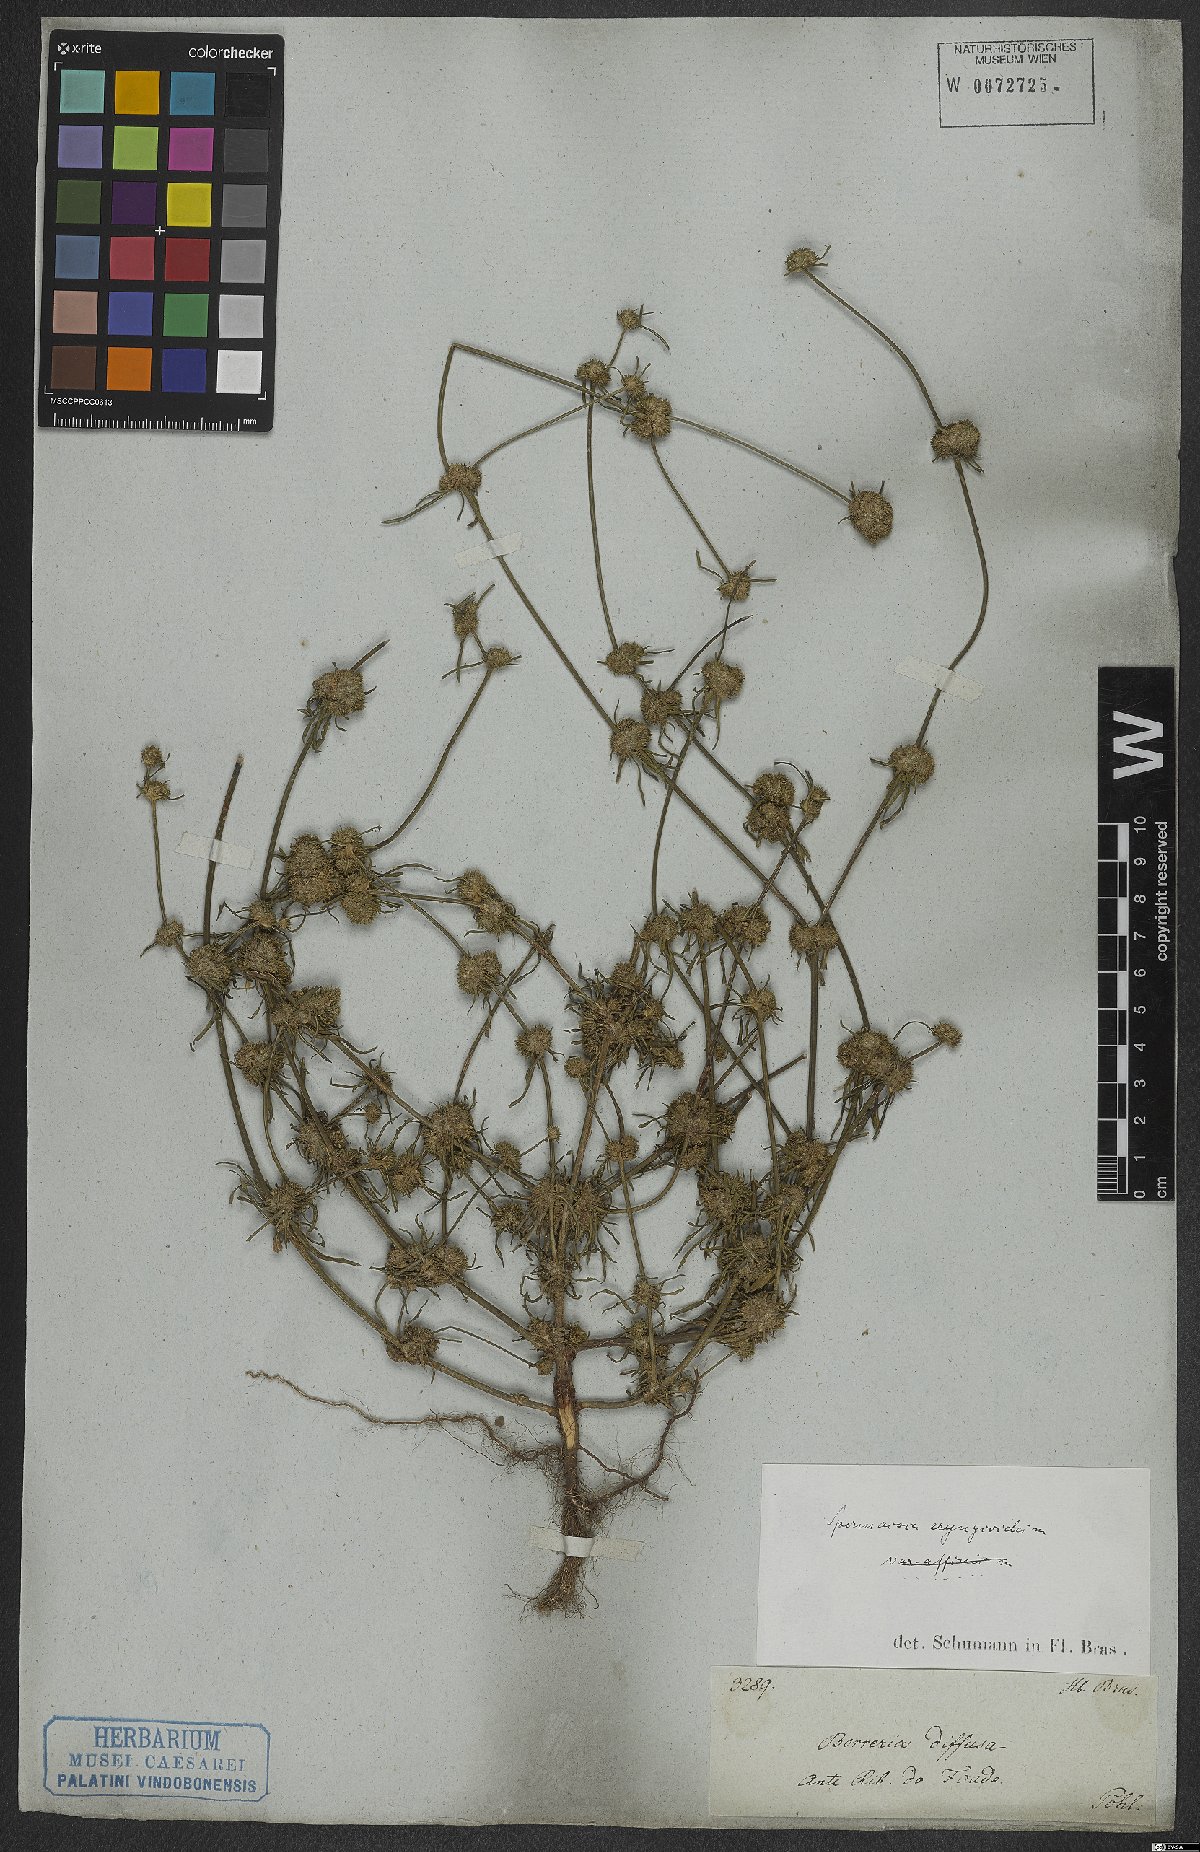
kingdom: Plantae
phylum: Tracheophyta
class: Magnoliopsida
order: Gentianales
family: Rubiaceae
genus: Spermacoce
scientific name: Spermacoce eryngioides
